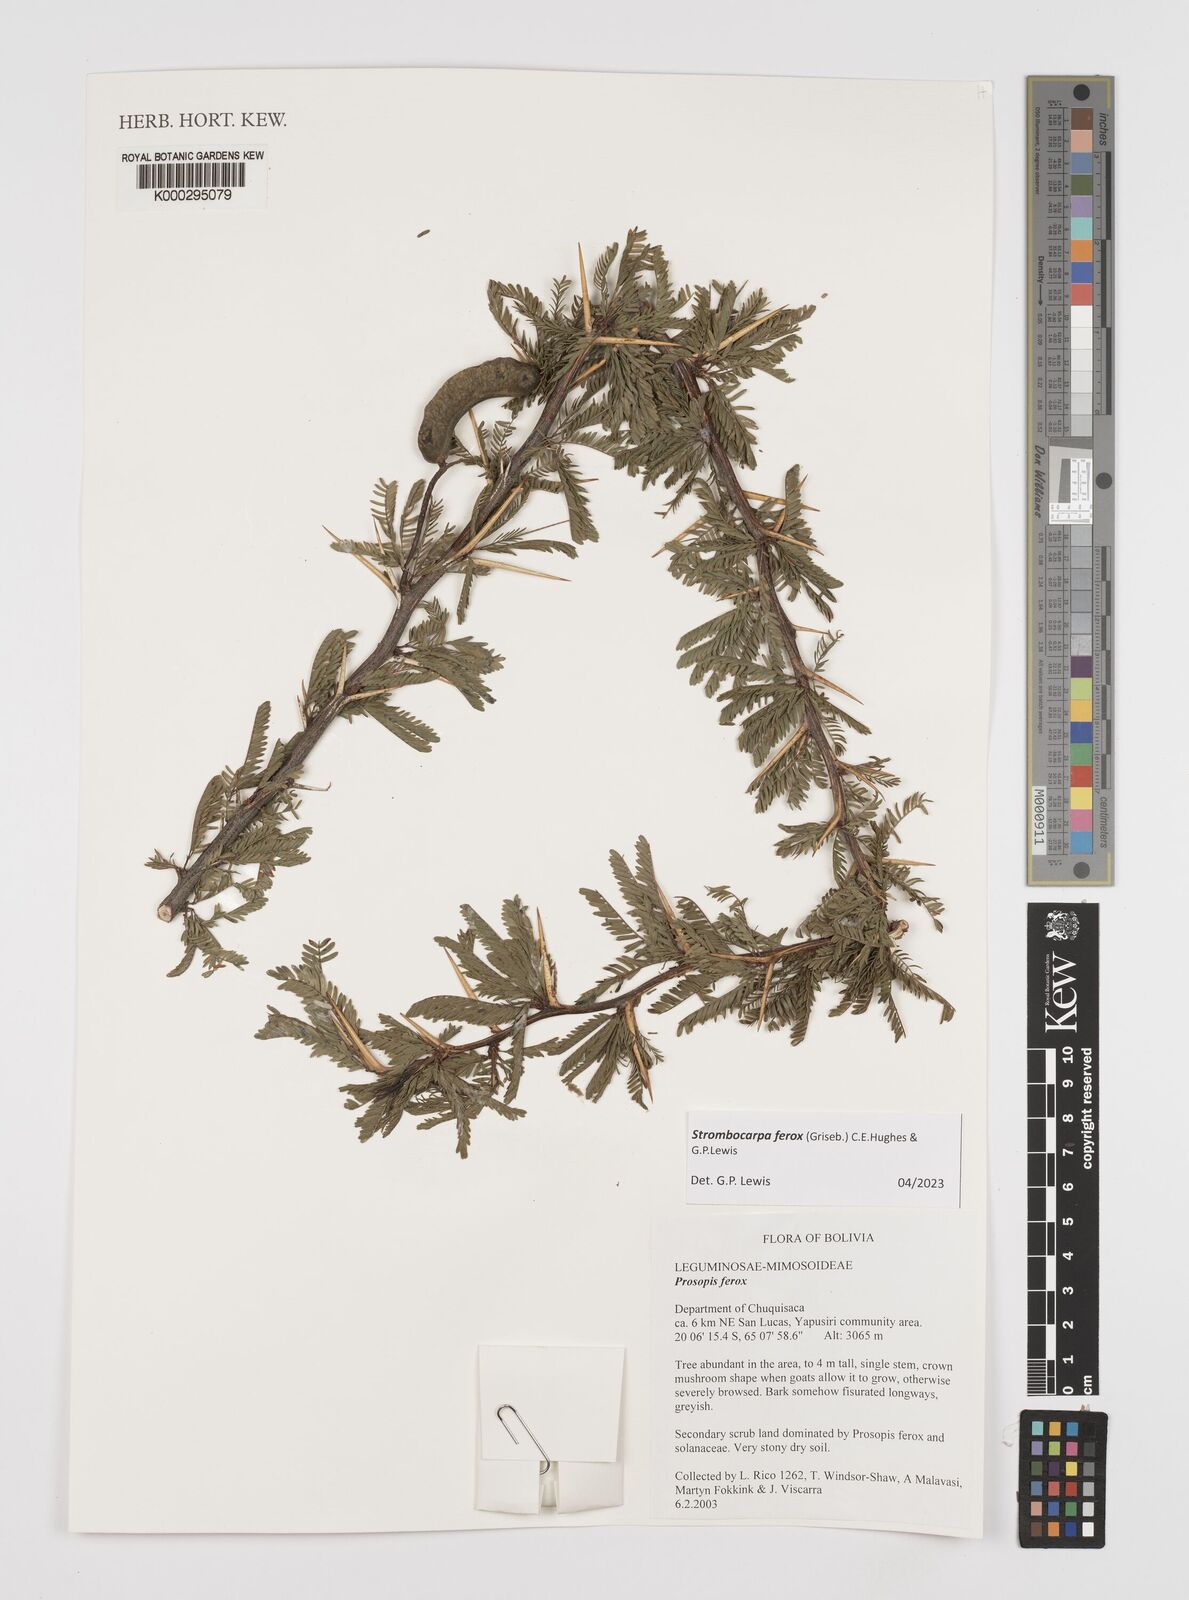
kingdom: Plantae
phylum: Tracheophyta
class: Magnoliopsida
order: Fabales
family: Fabaceae
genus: Prosopis
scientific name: Prosopis ferox
